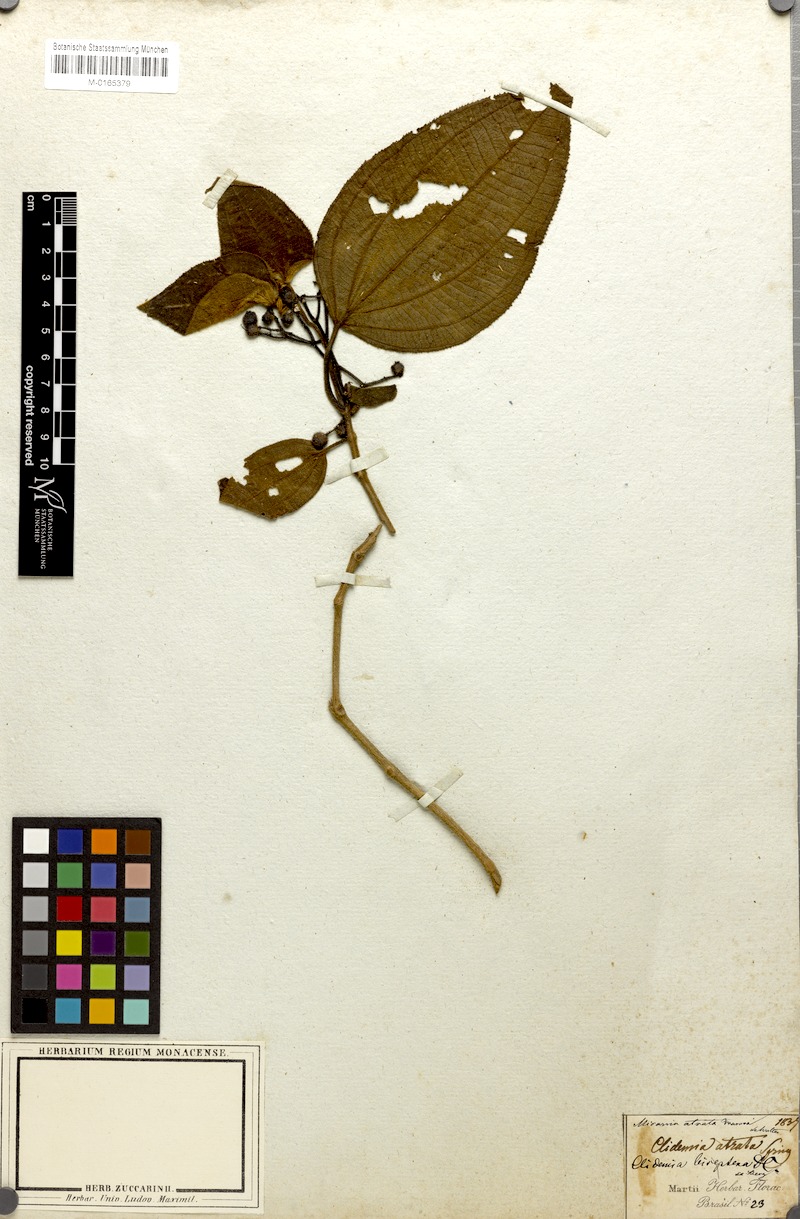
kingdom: Plantae
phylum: Tracheophyta
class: Magnoliopsida
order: Myrtales
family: Melastomataceae
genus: Miconia
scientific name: Miconia atrata
